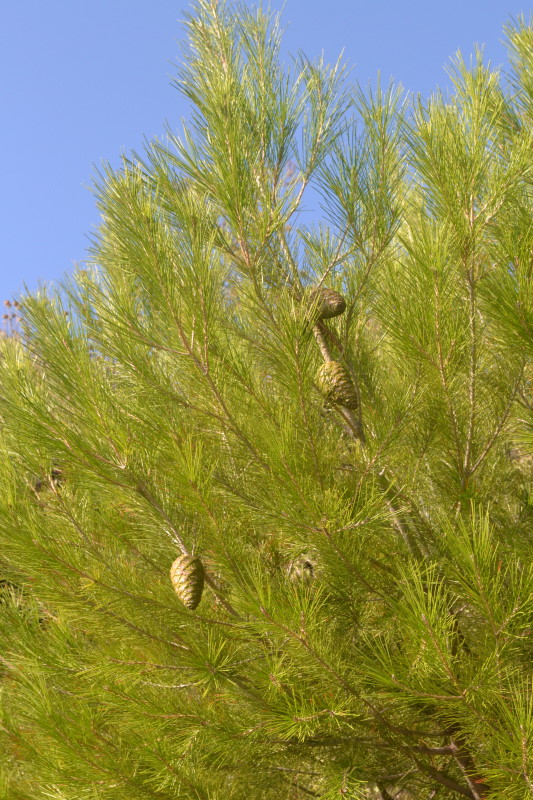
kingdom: Plantae
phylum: Tracheophyta
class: Pinopsida
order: Pinales
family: Pinaceae
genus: Pinus
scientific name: Pinus
